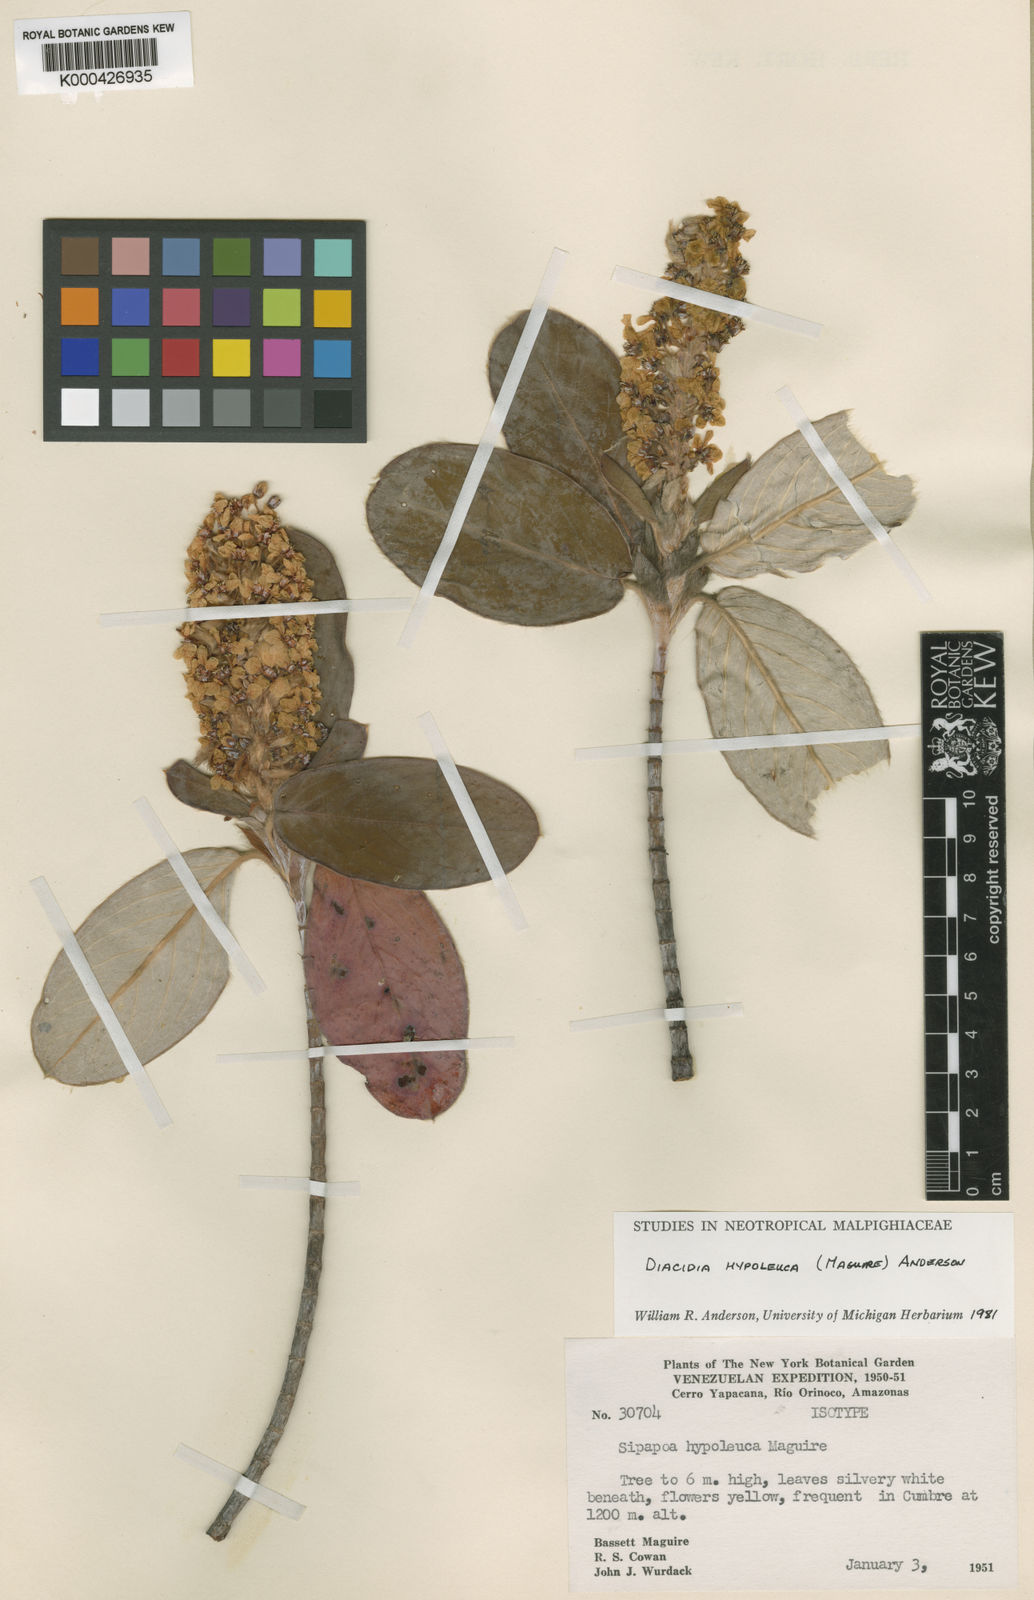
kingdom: Plantae
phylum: Tracheophyta
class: Magnoliopsida
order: Malpighiales
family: Malpighiaceae
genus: Diacidia
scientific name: Diacidia hypoleuca
